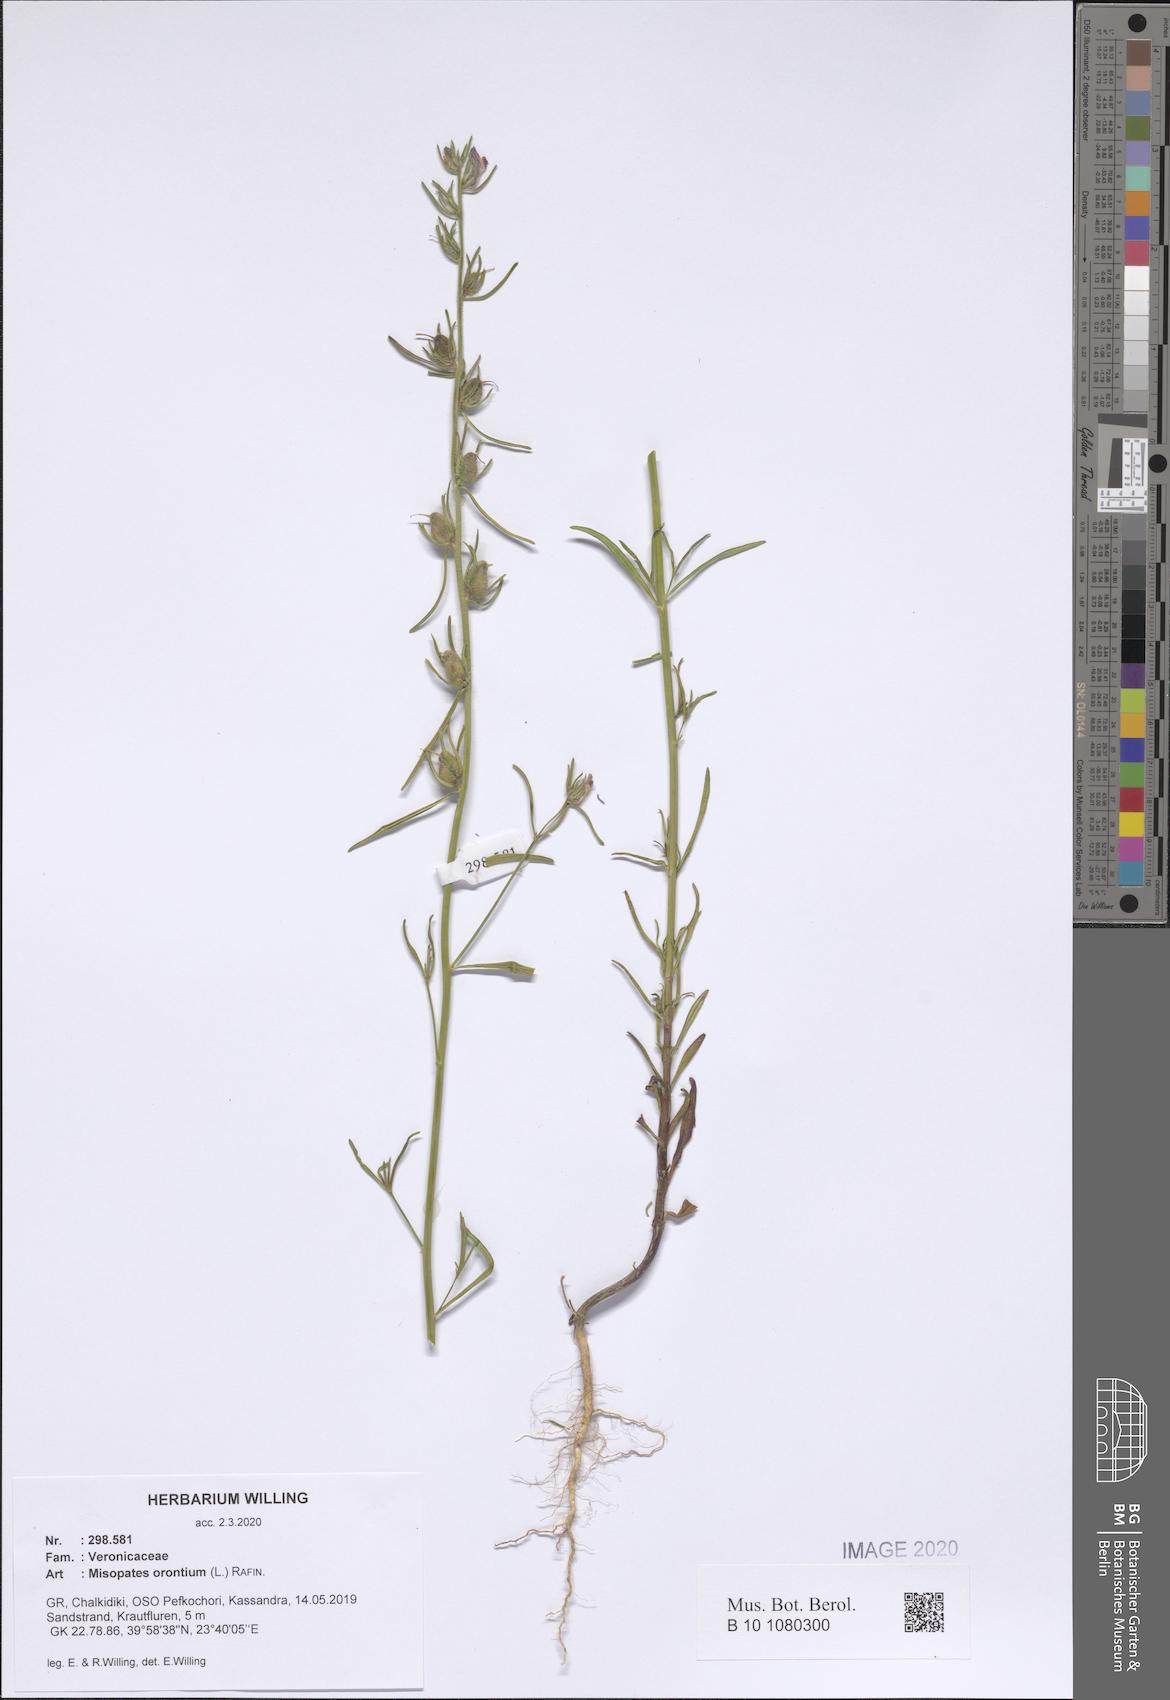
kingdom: Plantae
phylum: Tracheophyta
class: Magnoliopsida
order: Lamiales
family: Plantaginaceae
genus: Misopates
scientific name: Misopates orontium
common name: Weasel's-snout
